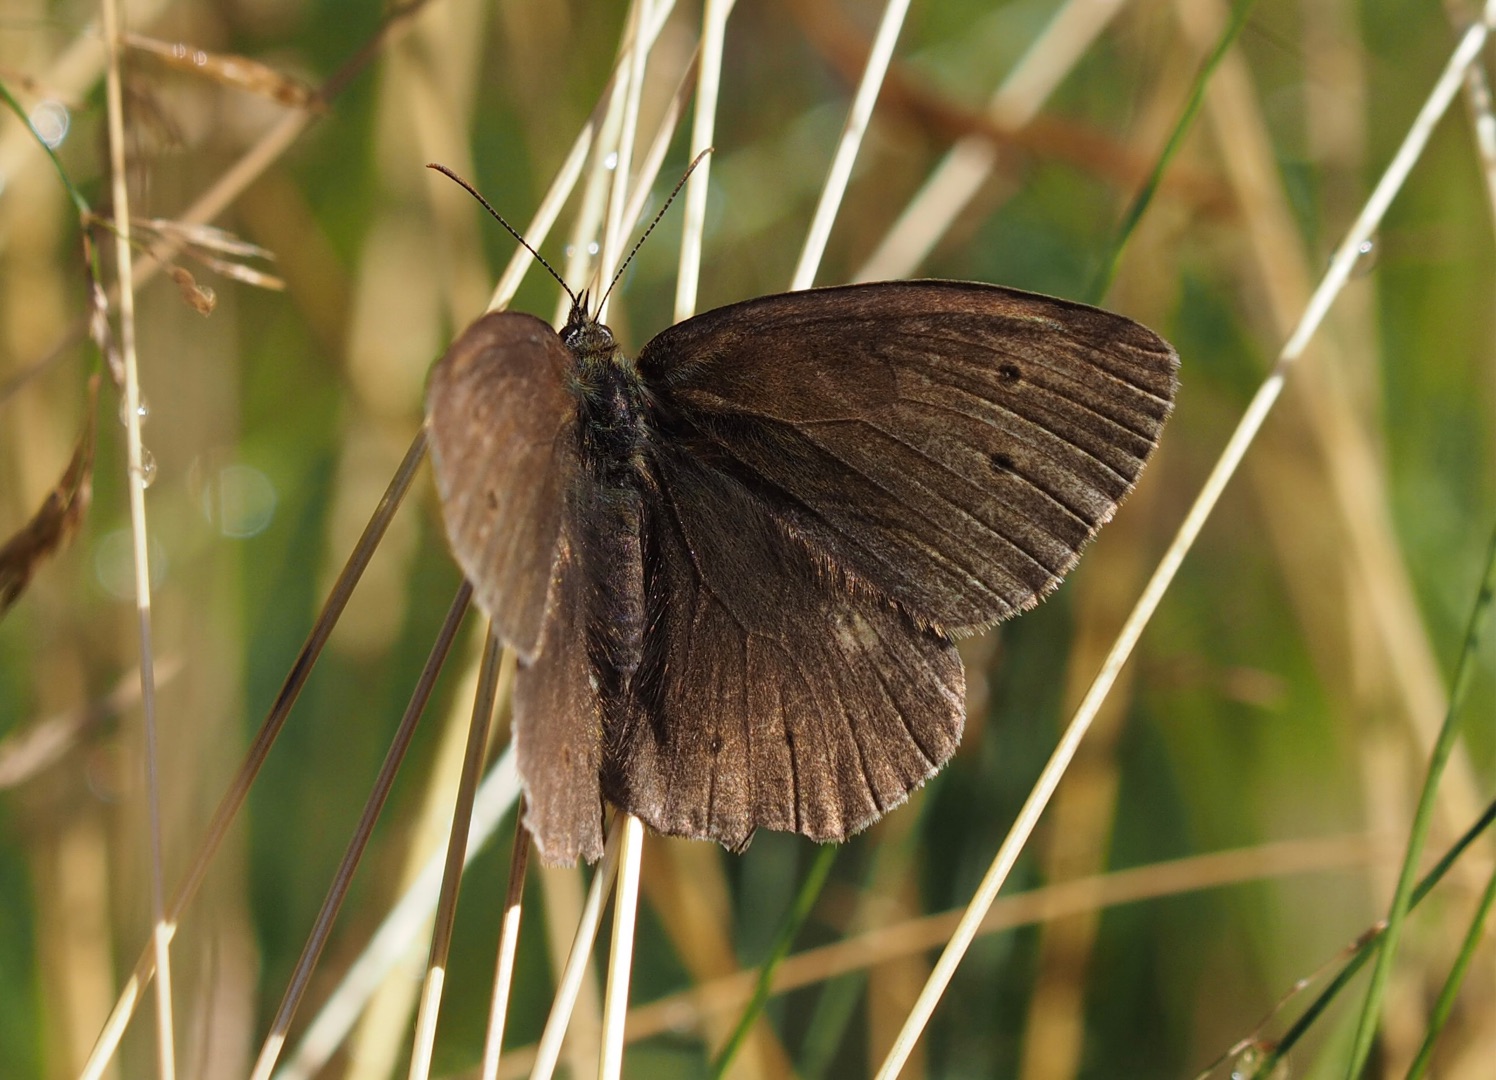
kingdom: Animalia
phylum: Arthropoda
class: Insecta
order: Lepidoptera
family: Nymphalidae
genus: Aphantopus
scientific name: Aphantopus hyperantus
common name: Engrandøje
